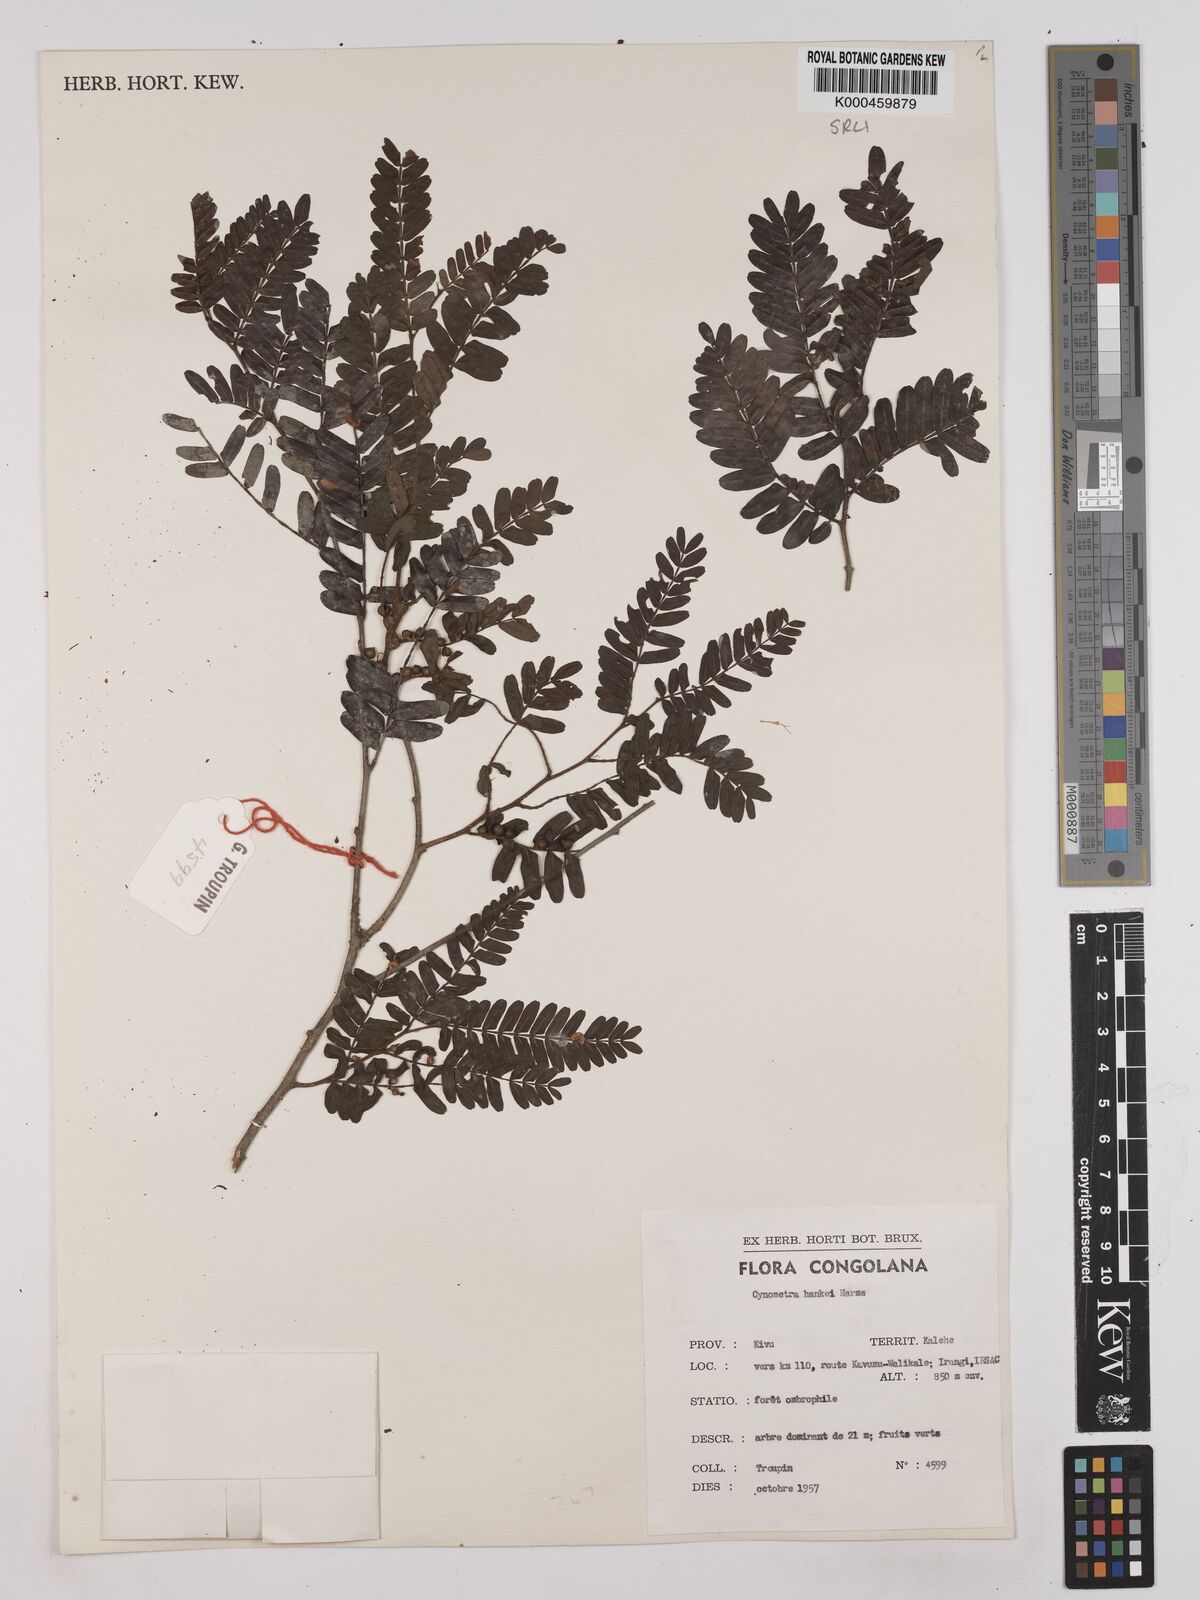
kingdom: Plantae
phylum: Tracheophyta
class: Magnoliopsida
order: Fabales
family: Fabaceae
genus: Cynometra
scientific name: Cynometra hankei
